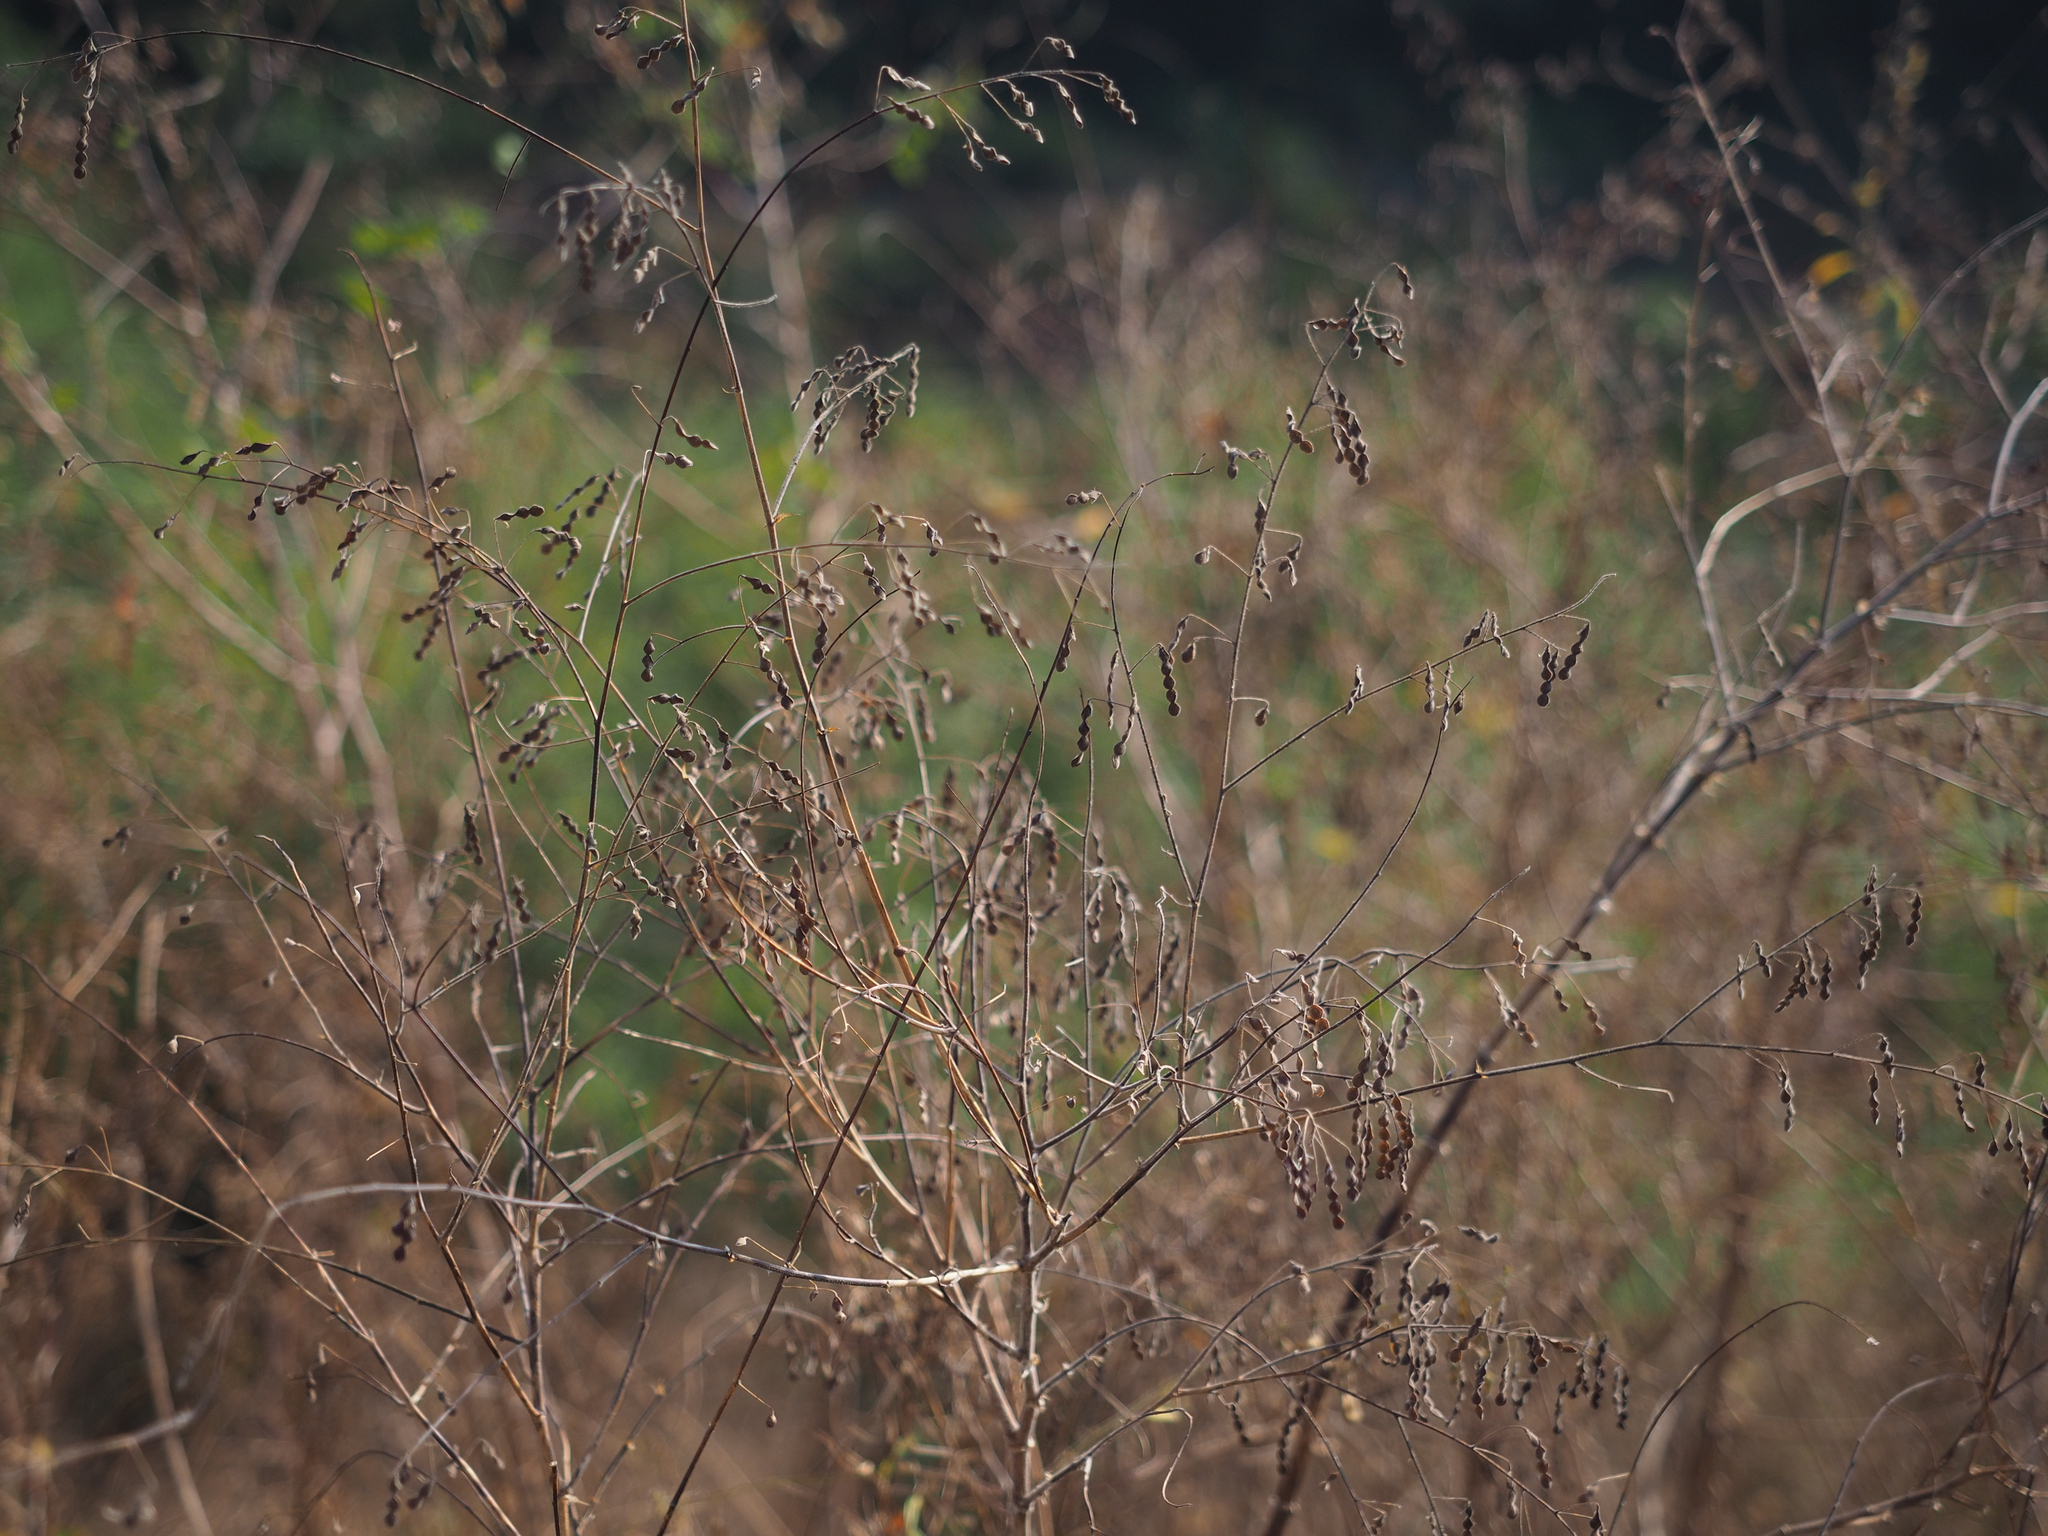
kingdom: Plantae
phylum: Tracheophyta
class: Magnoliopsida
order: Fabales
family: Fabaceae
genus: Desmodium
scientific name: Desmodium tortuosum
